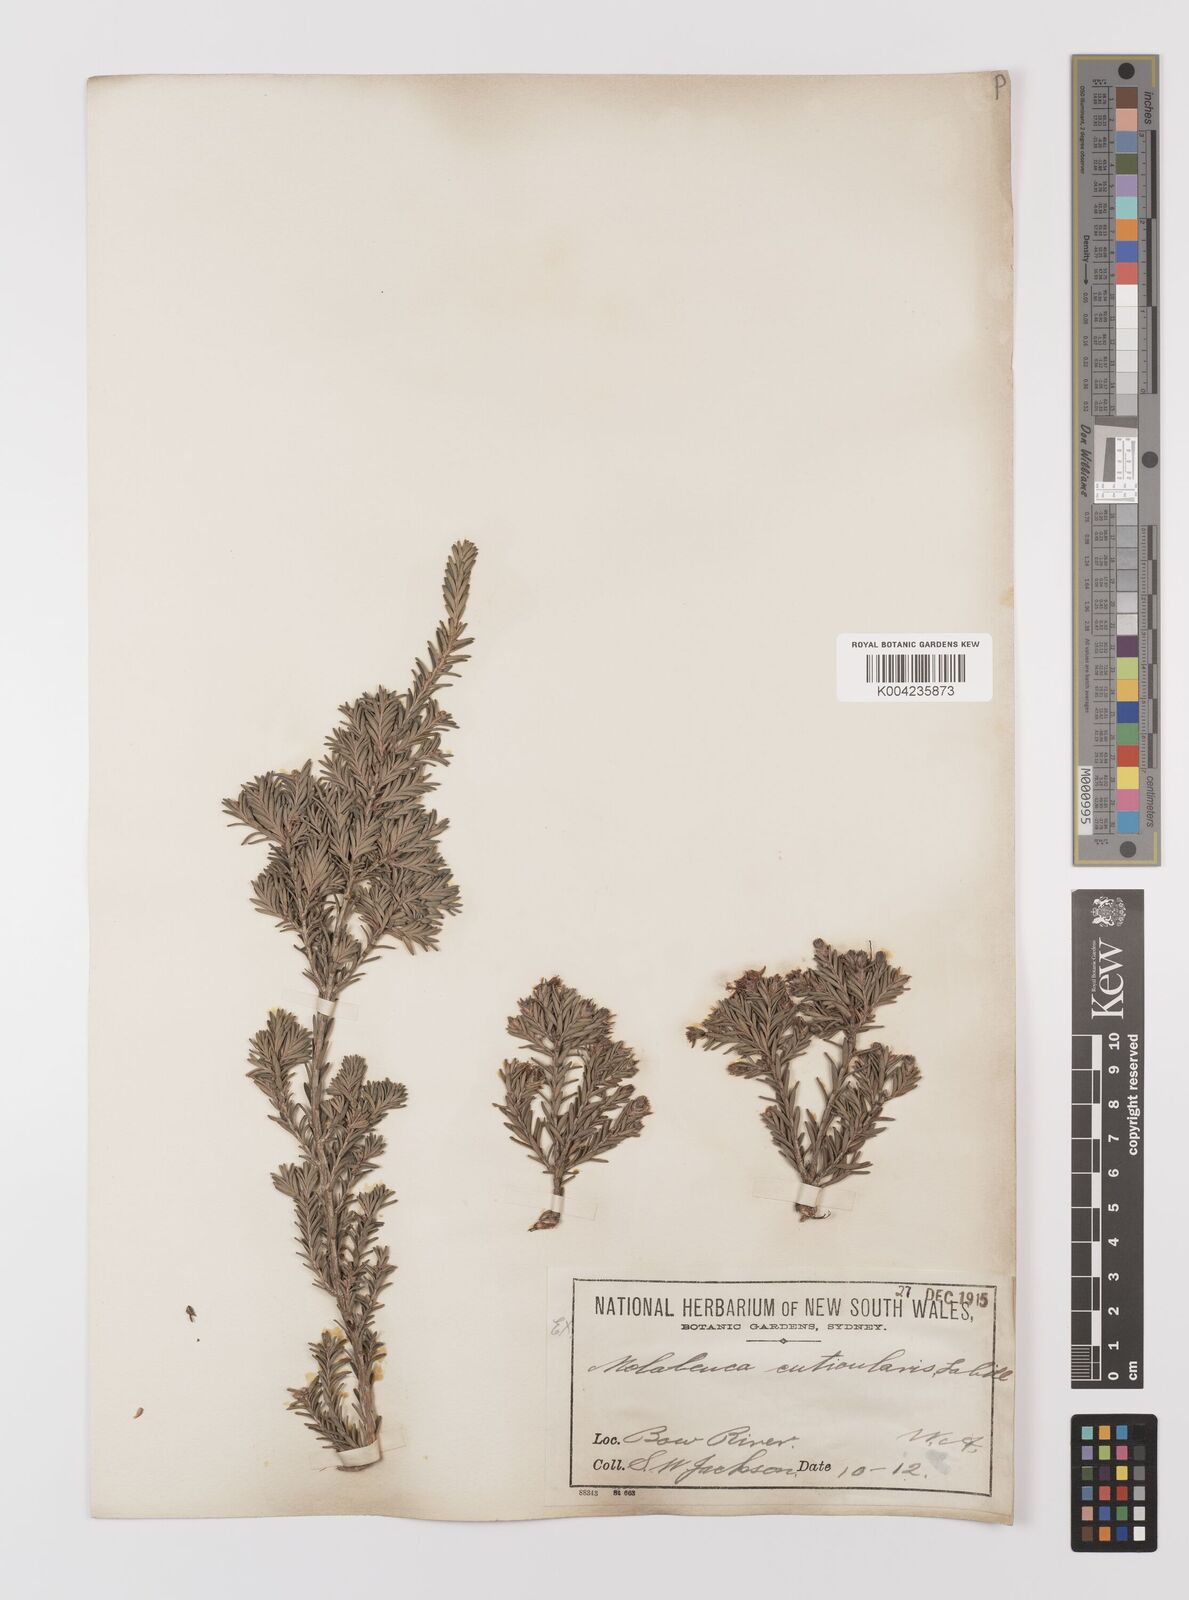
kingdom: Plantae
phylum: Tracheophyta
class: Magnoliopsida
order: Myrtales
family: Myrtaceae
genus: Melaleuca
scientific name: Melaleuca cuticularis
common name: Saltwater paperbark
